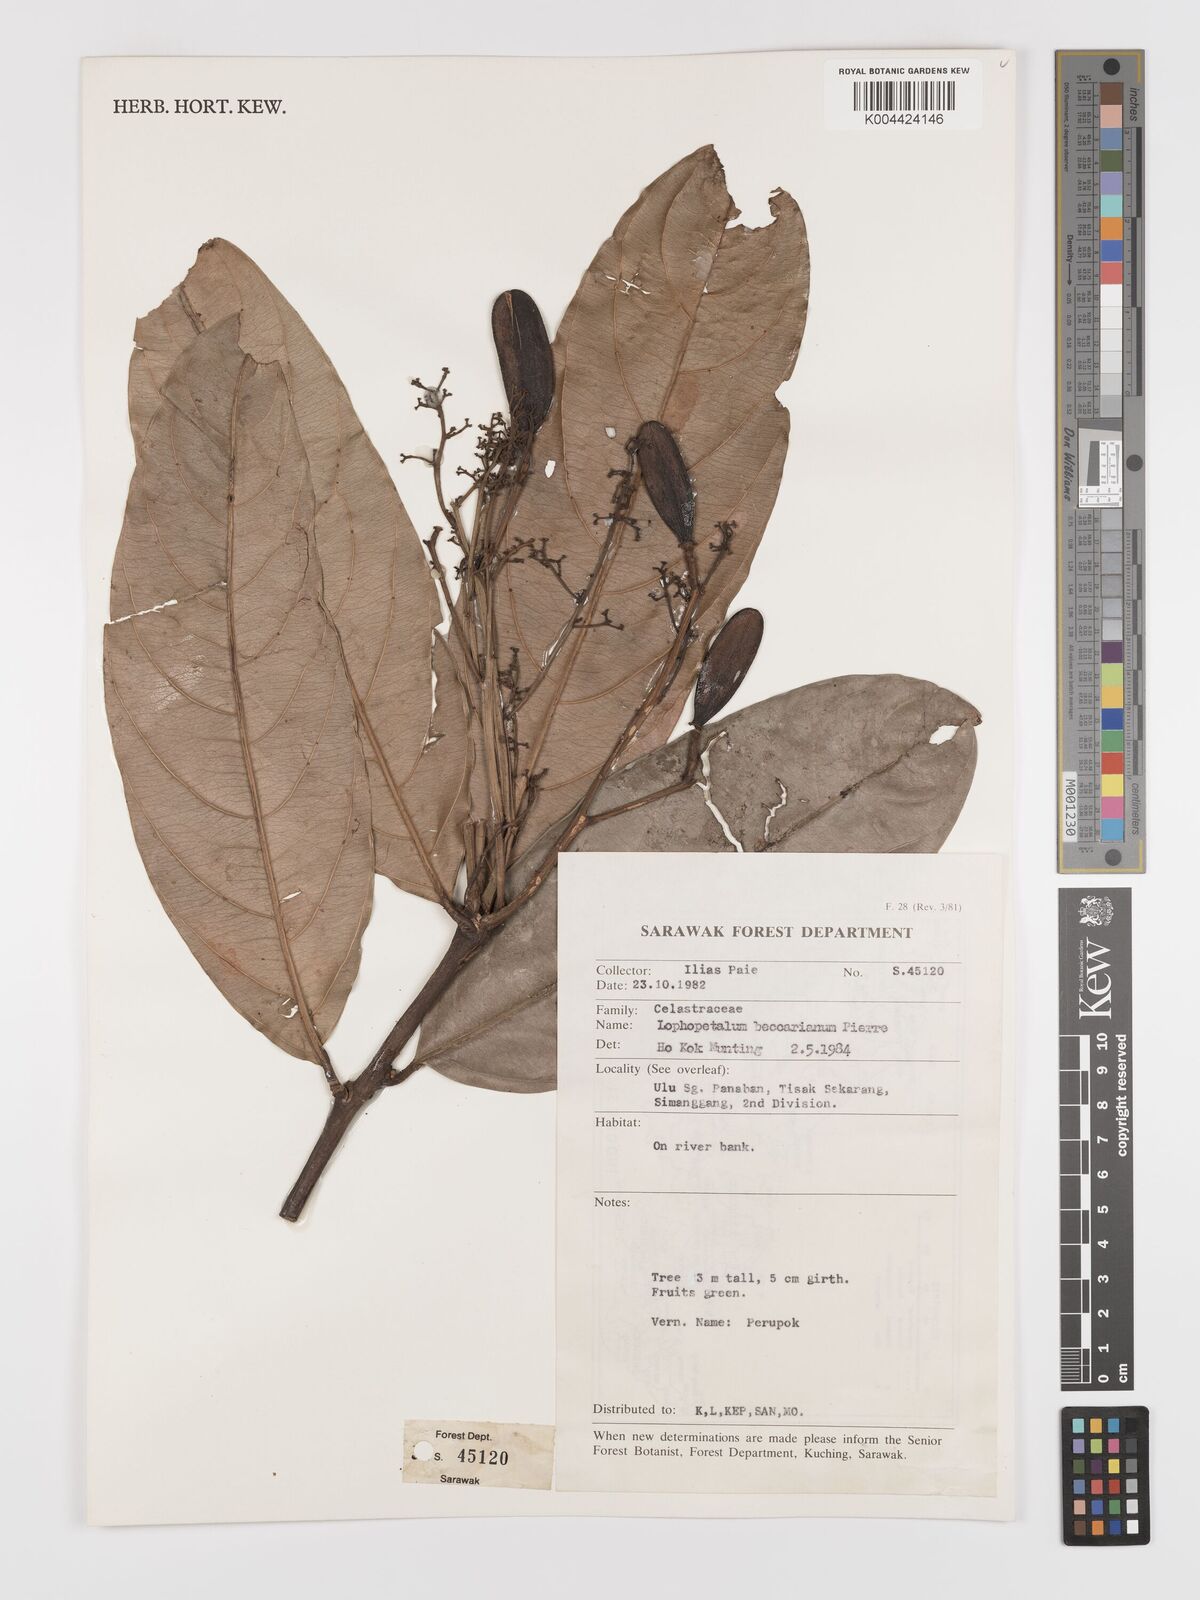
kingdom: Plantae
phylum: Tracheophyta
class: Magnoliopsida
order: Celastrales
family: Celastraceae
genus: Lophopetalum
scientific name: Lophopetalum beccarianum
